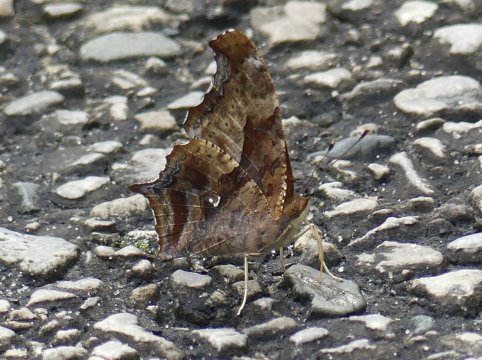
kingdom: Animalia
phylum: Arthropoda
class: Insecta
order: Lepidoptera
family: Nymphalidae
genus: Polygonia
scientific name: Polygonia interrogationis
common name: Question Mark
